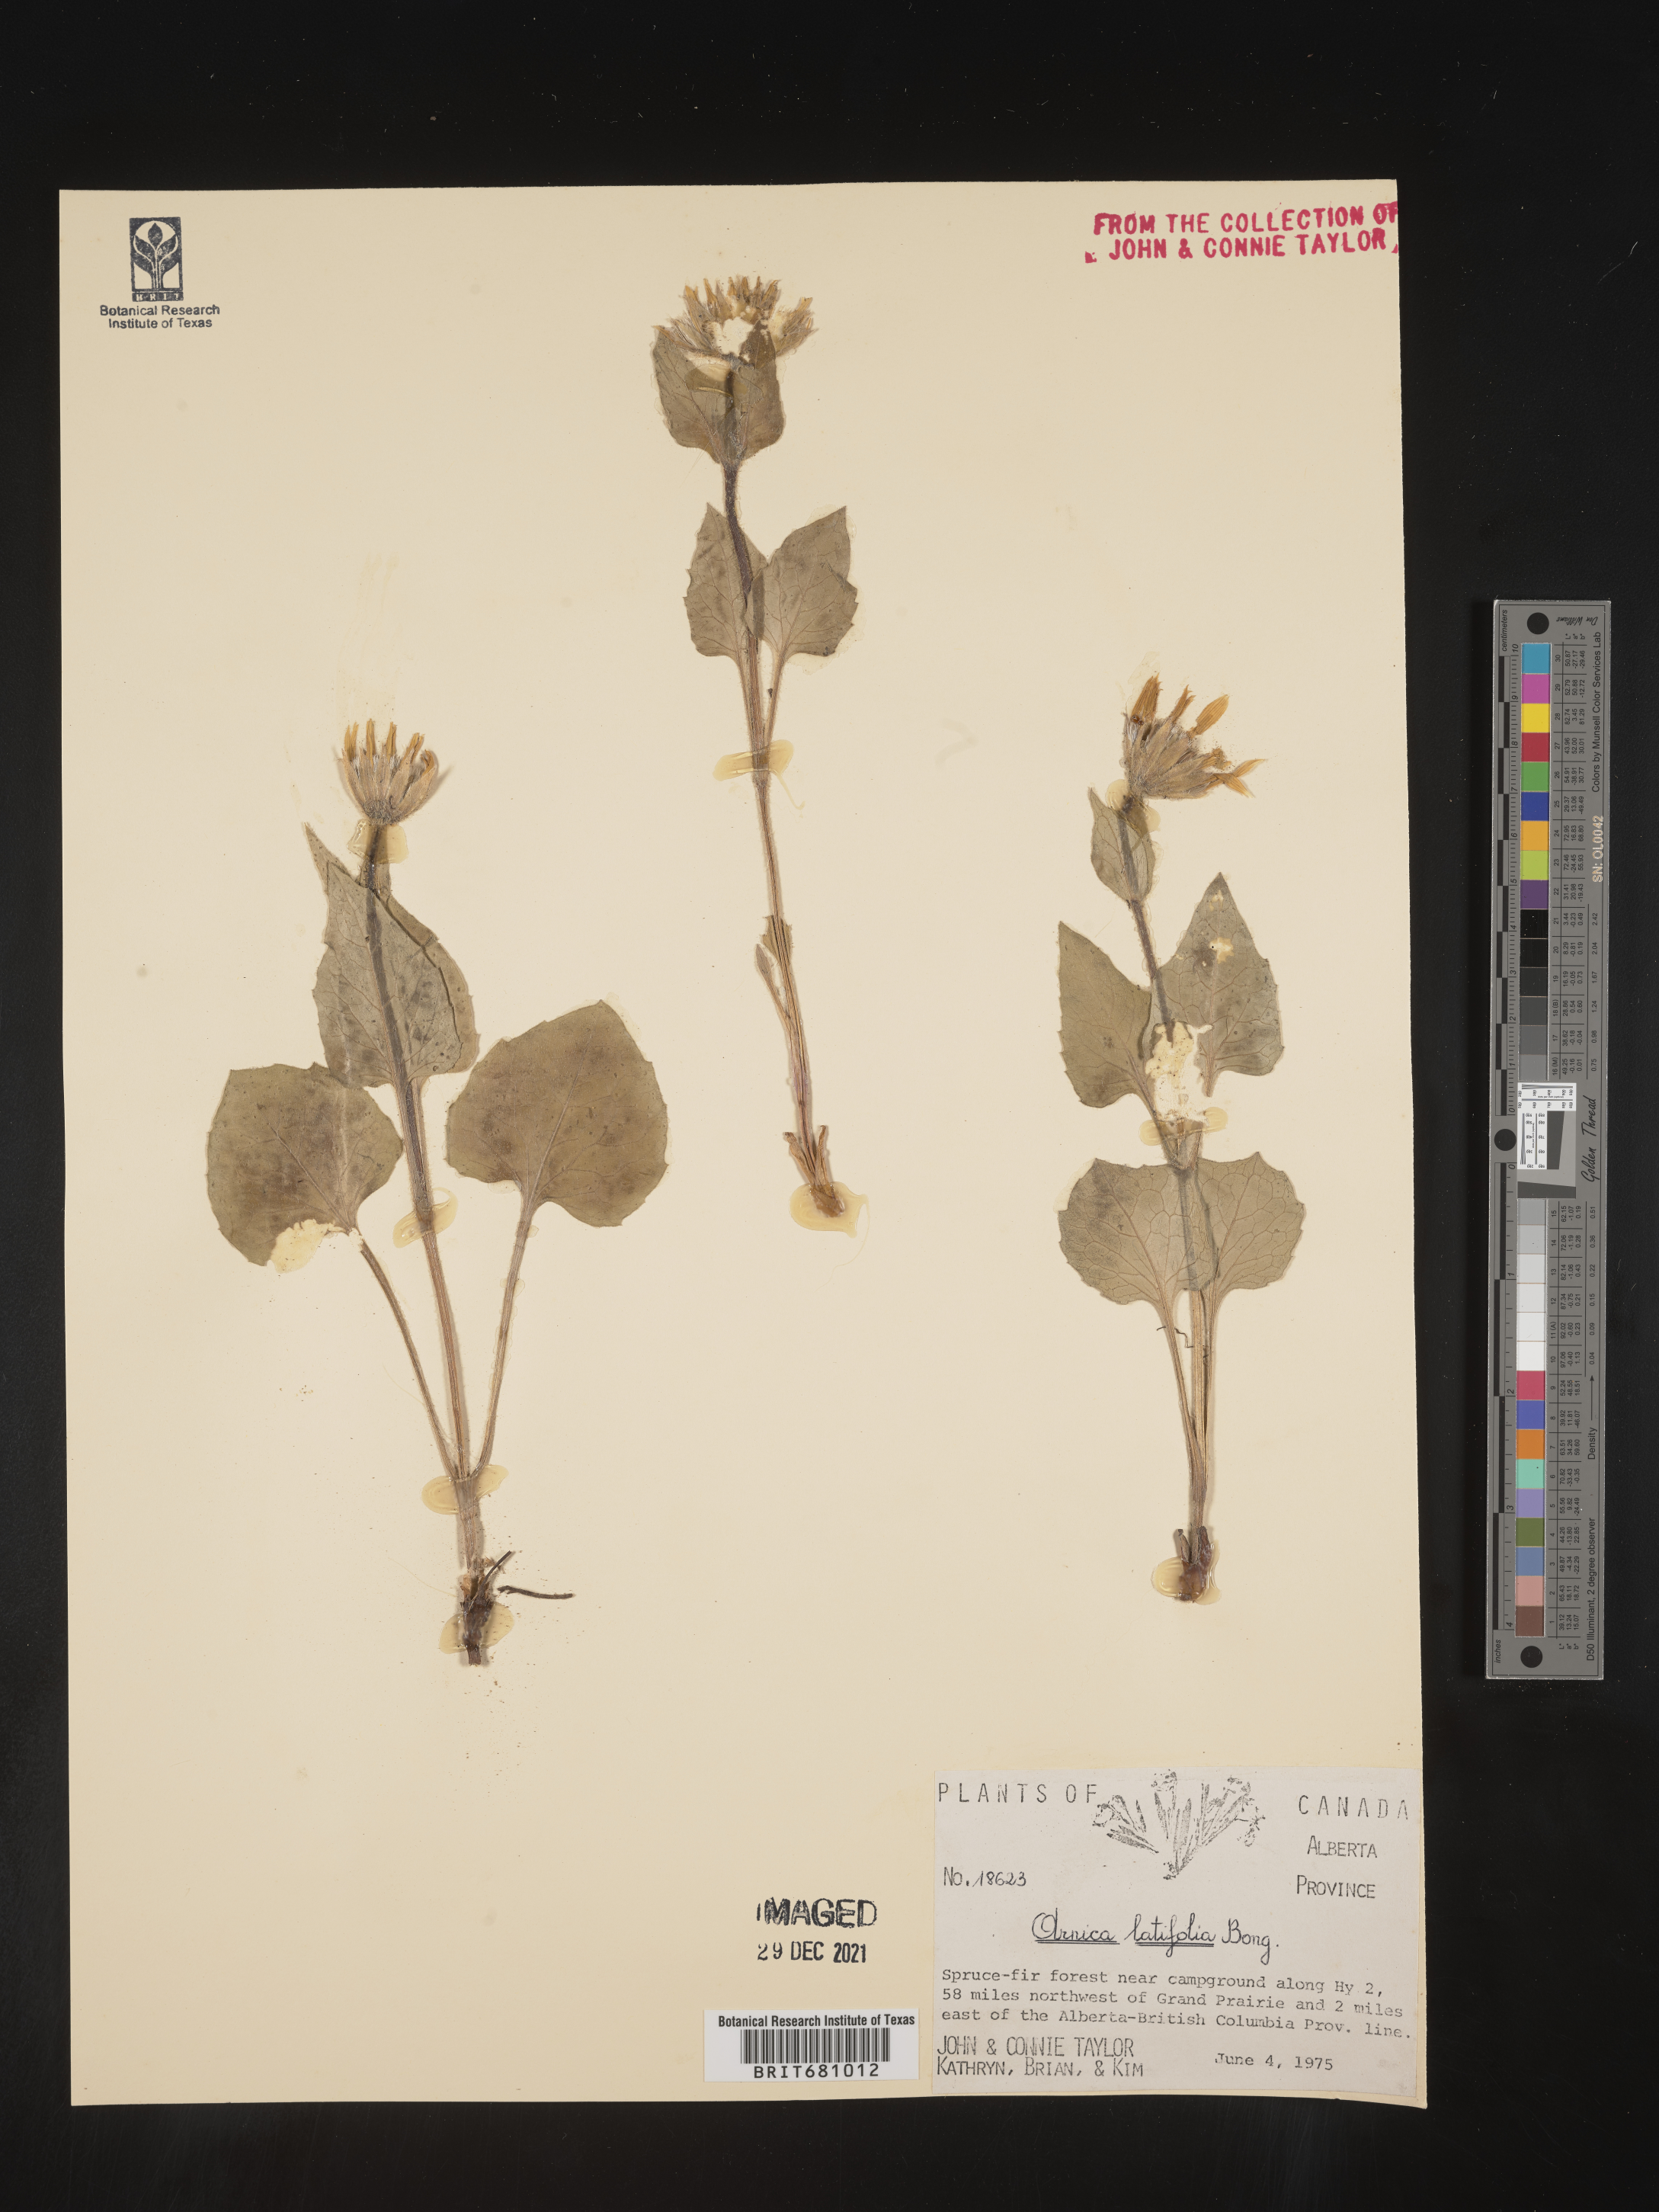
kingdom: Plantae
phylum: Tracheophyta
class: Magnoliopsida
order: Asterales
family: Asteraceae
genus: Arnica
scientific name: Arnica latifolia
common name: Arnica
